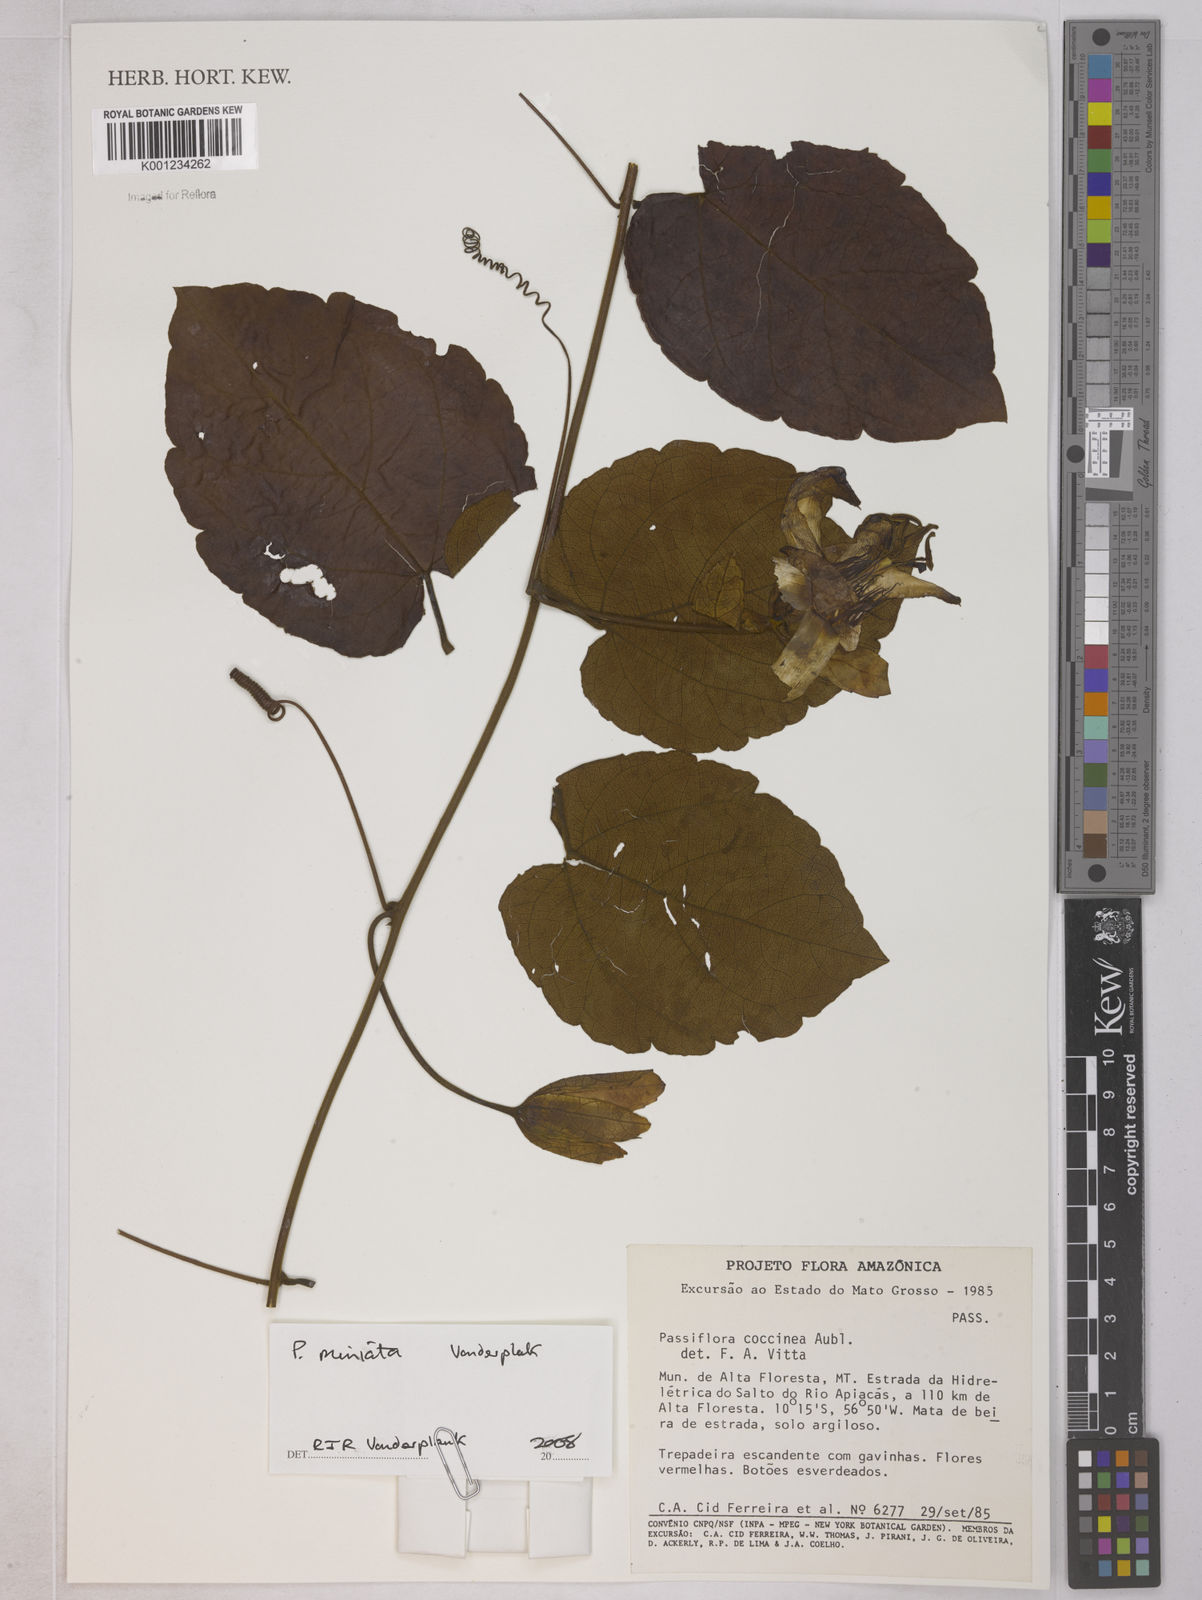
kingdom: Plantae
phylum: Tracheophyta
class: Magnoliopsida
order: Malpighiales
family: Passifloraceae
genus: Passiflora
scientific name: Passiflora coccinea
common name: Scarlet passionflower
